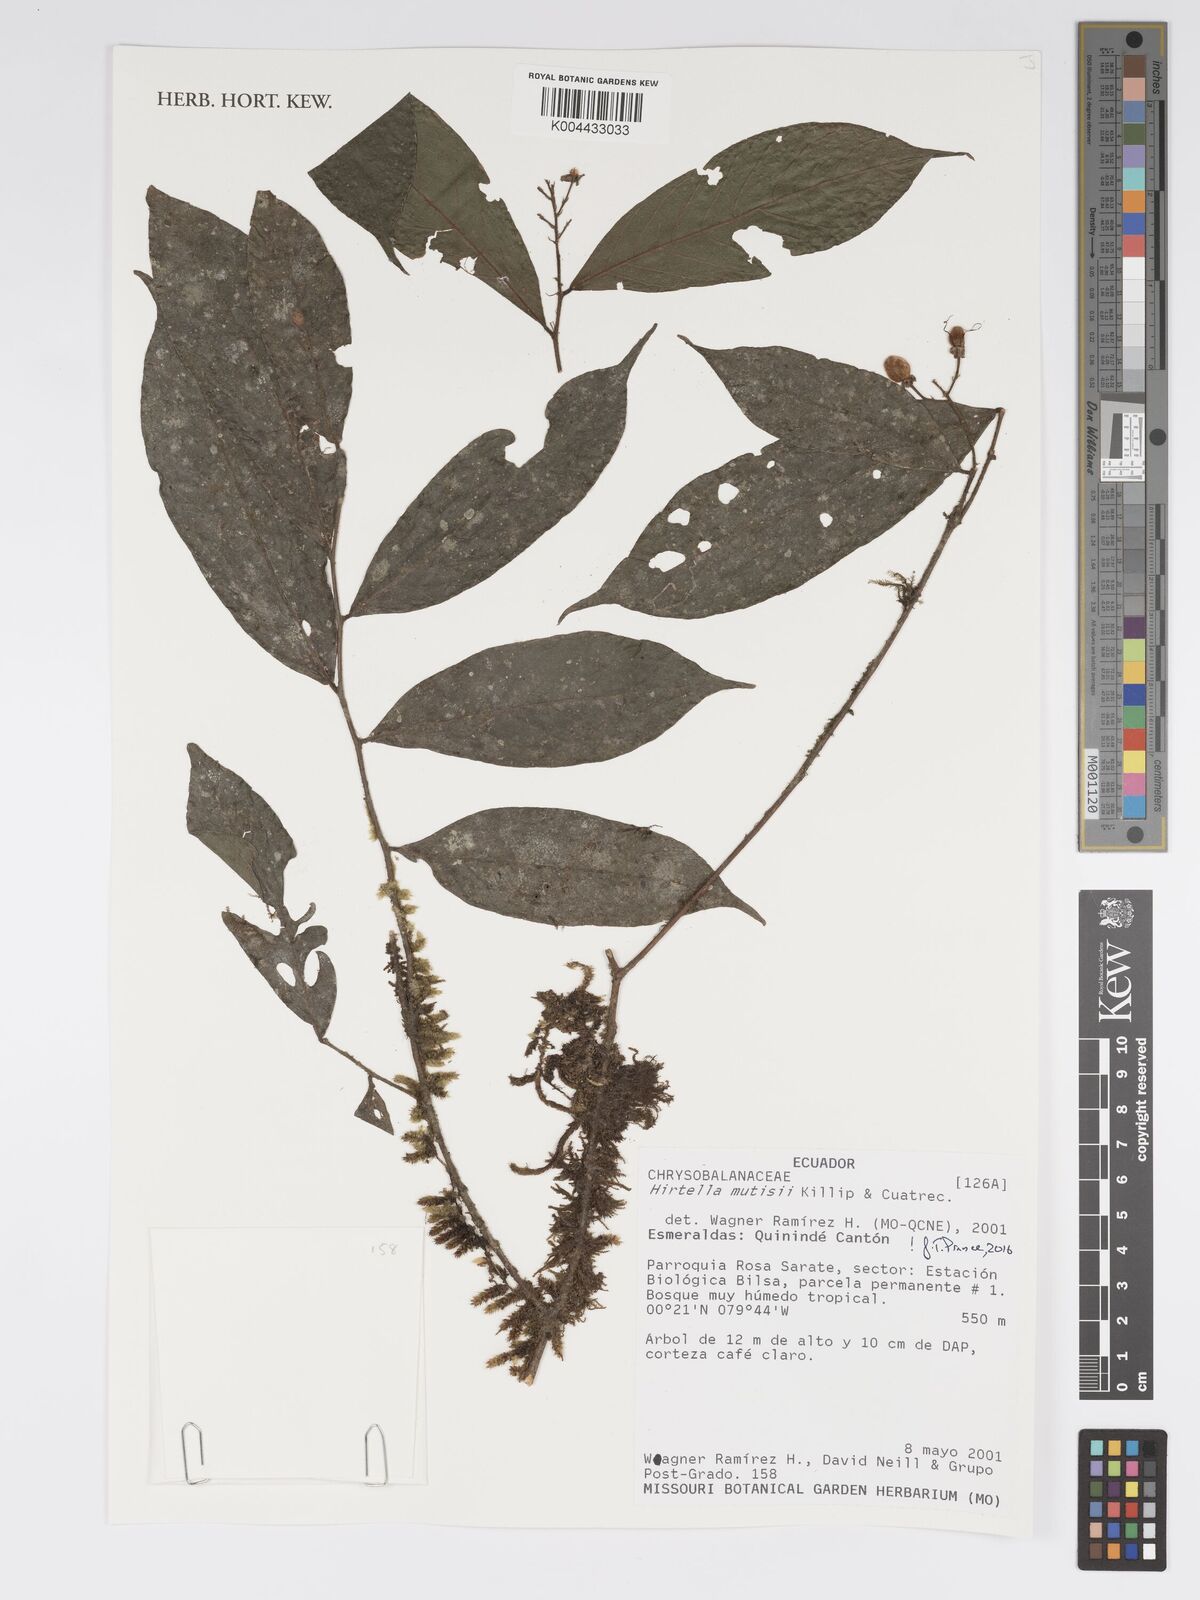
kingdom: Plantae
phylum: Tracheophyta
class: Magnoliopsida
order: Malpighiales
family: Chrysobalanaceae
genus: Hirtella
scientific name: Hirtella mutisii
